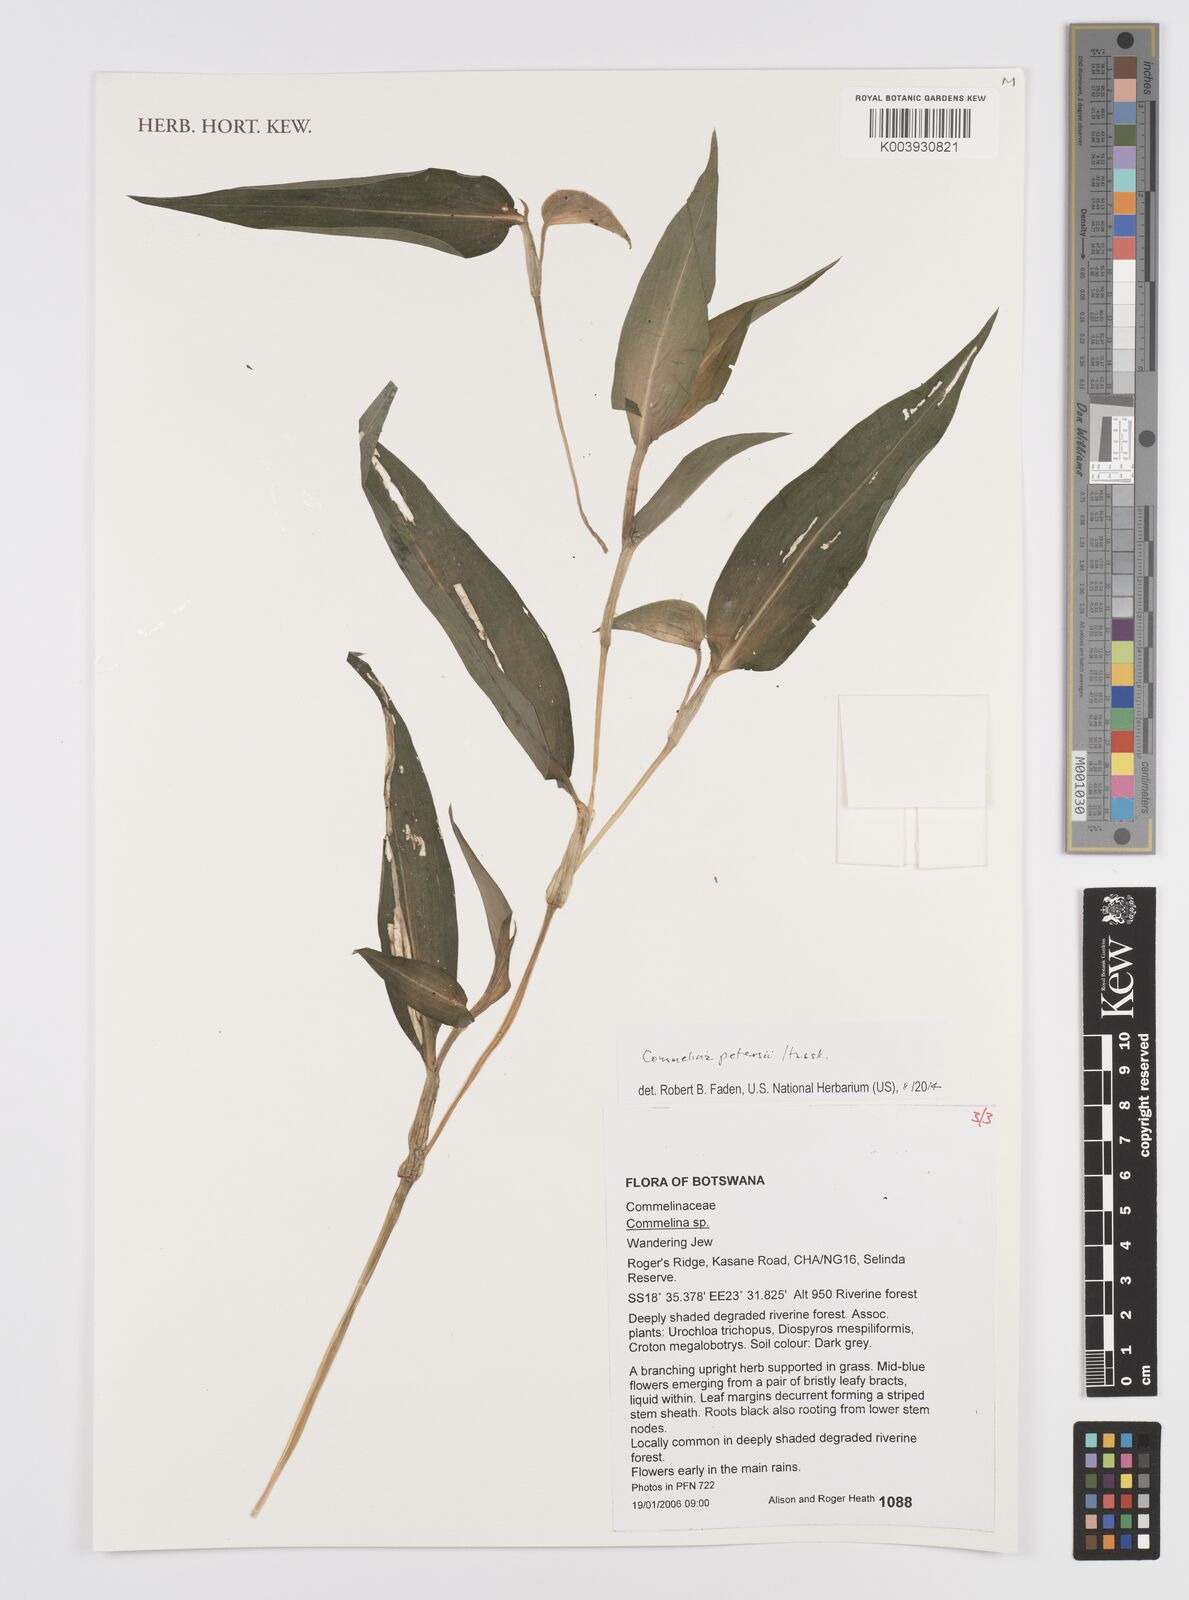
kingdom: Plantae
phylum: Tracheophyta
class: Liliopsida
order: Commelinales
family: Commelinaceae
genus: Commelina
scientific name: Commelina petersii
